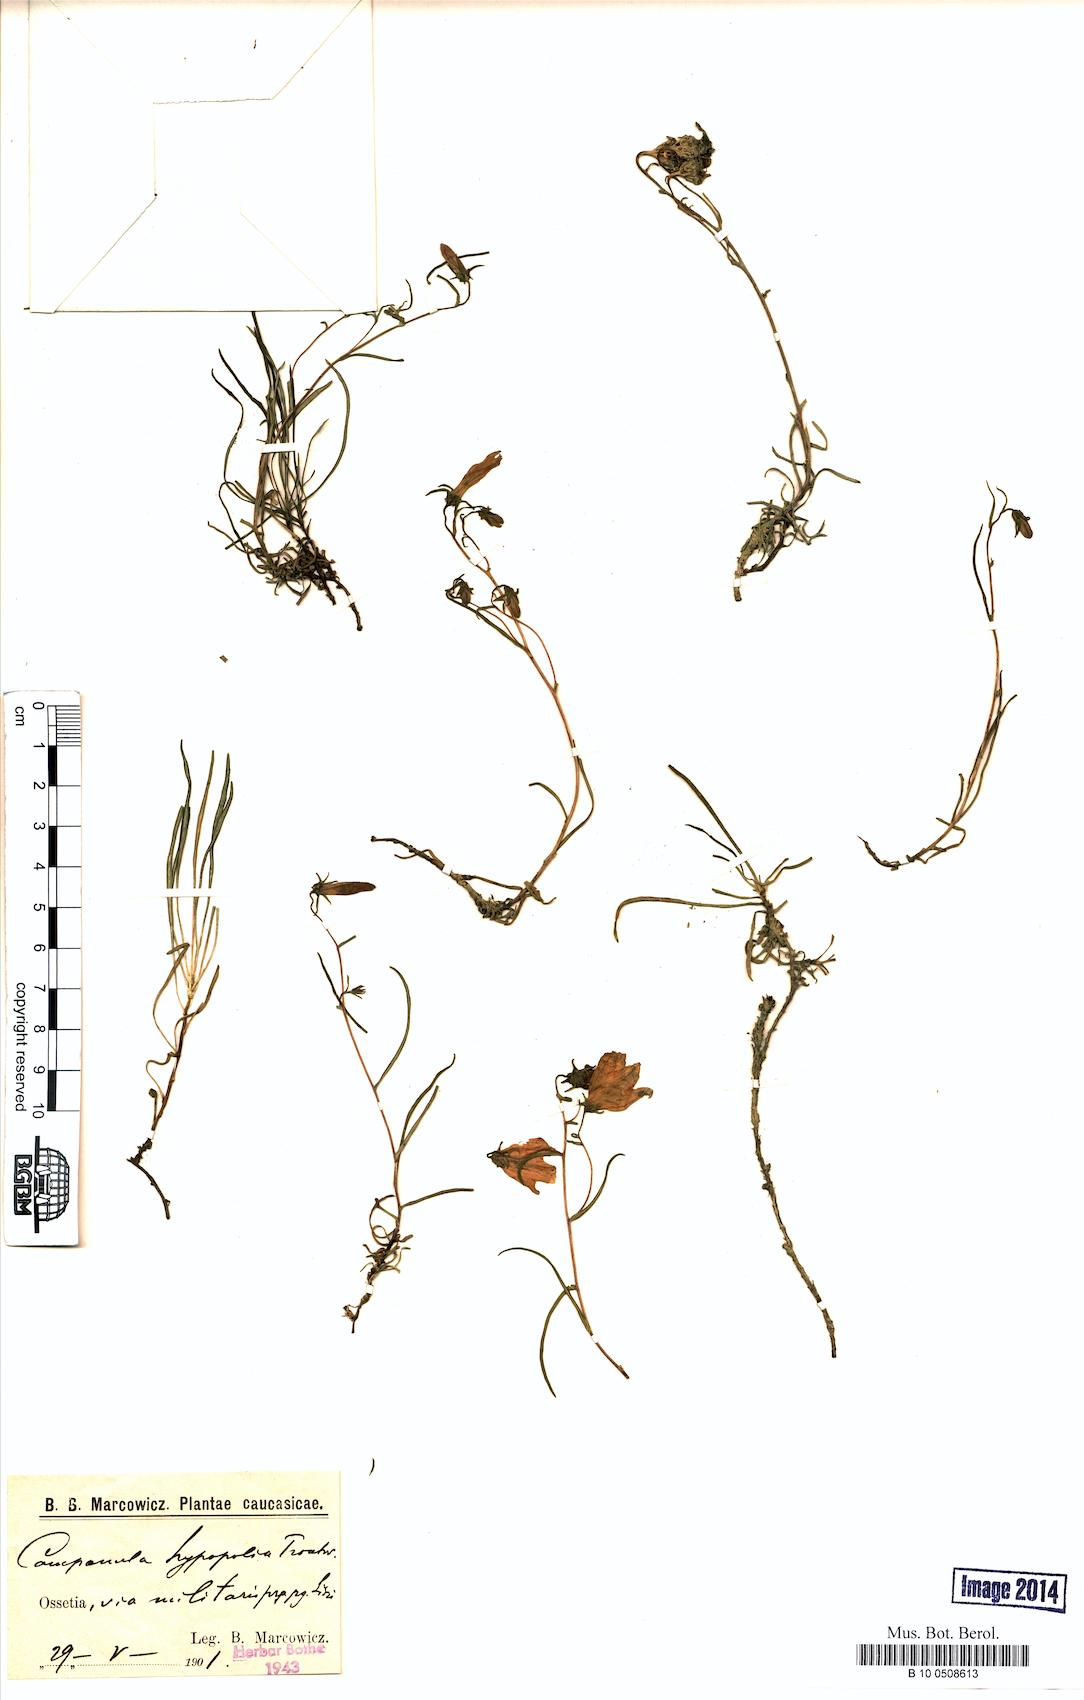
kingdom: Plantae
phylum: Tracheophyta
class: Magnoliopsida
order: Asterales
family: Campanulaceae
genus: Campanula
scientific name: Campanula hypopolia
